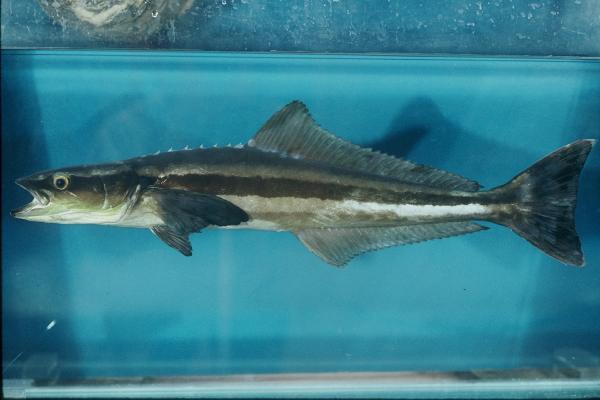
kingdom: Animalia
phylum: Chordata
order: Perciformes
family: Rachycentridae
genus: Rachycentron
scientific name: Rachycentron canadum
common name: Cobia
